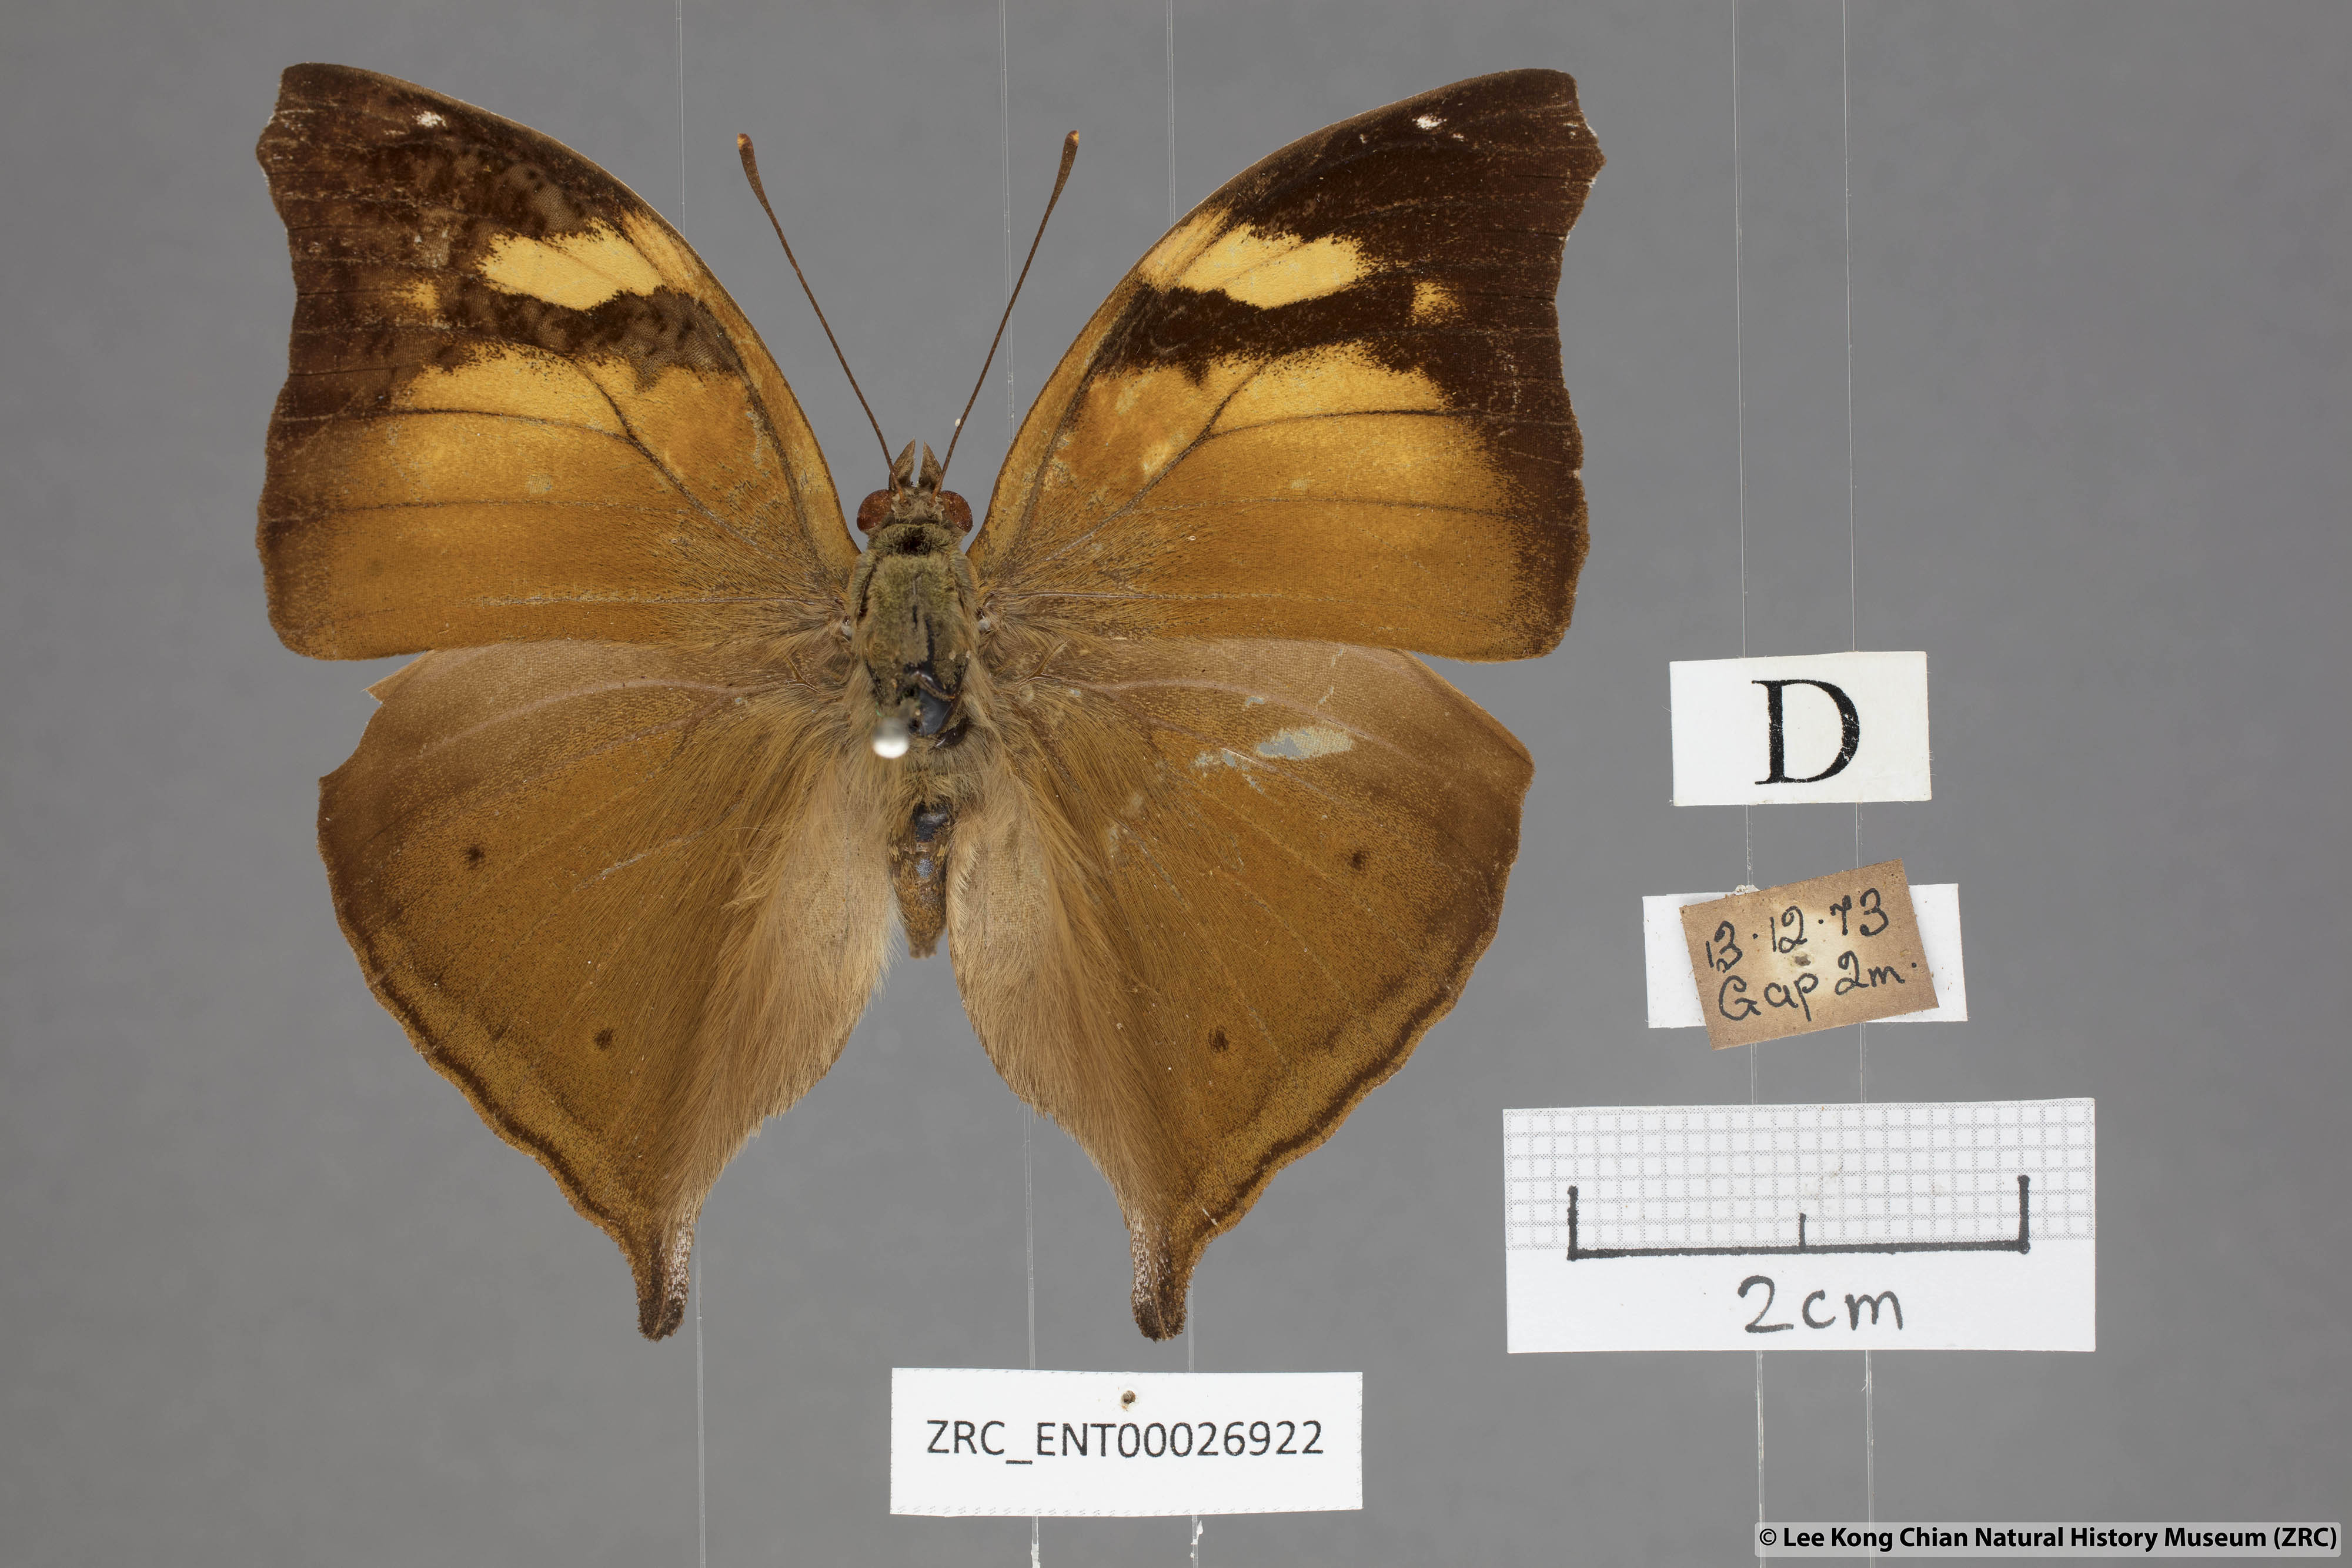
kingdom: Animalia
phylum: Arthropoda
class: Insecta
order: Lepidoptera
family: Nymphalidae
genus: Doleschallia
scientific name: Doleschallia bisaltide
